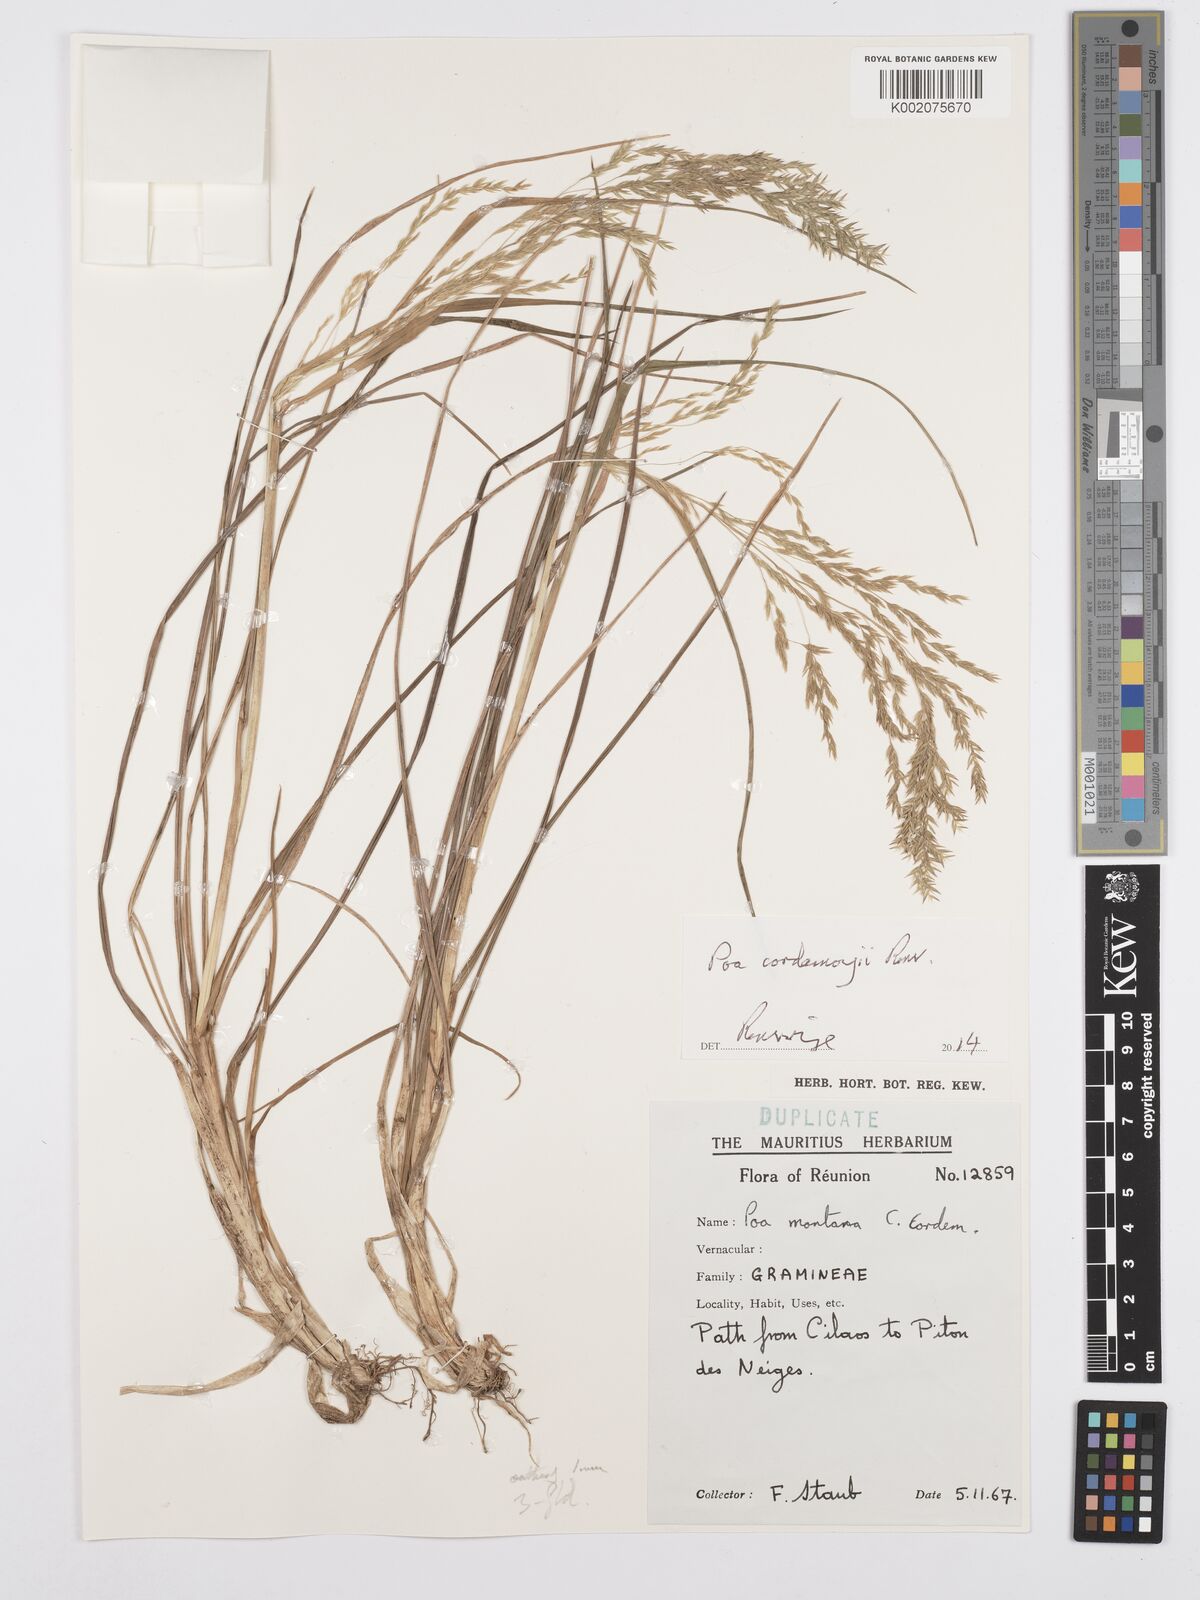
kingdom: Plantae
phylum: Tracheophyta
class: Liliopsida
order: Poales
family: Poaceae
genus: Poa
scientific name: Poa cordemoyi
